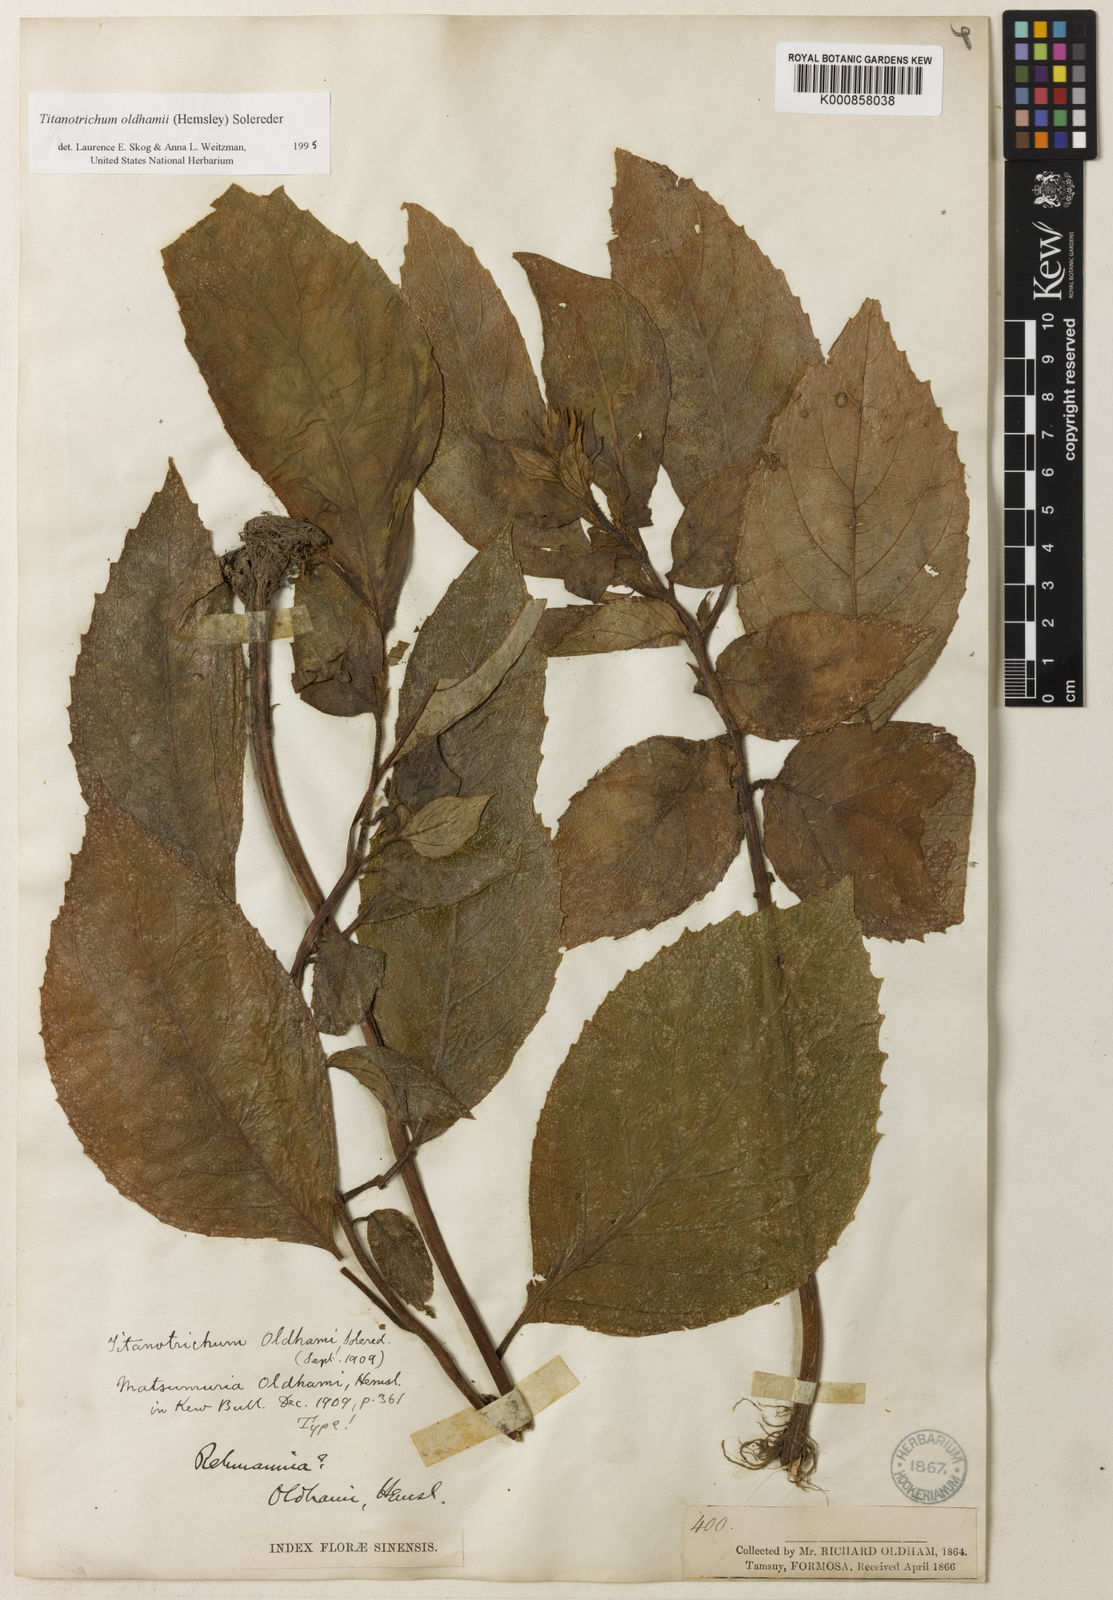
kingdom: Plantae
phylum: Tracheophyta
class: Magnoliopsida
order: Lamiales
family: Gesneriaceae
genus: Titanotrichum
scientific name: Titanotrichum oldhamii
